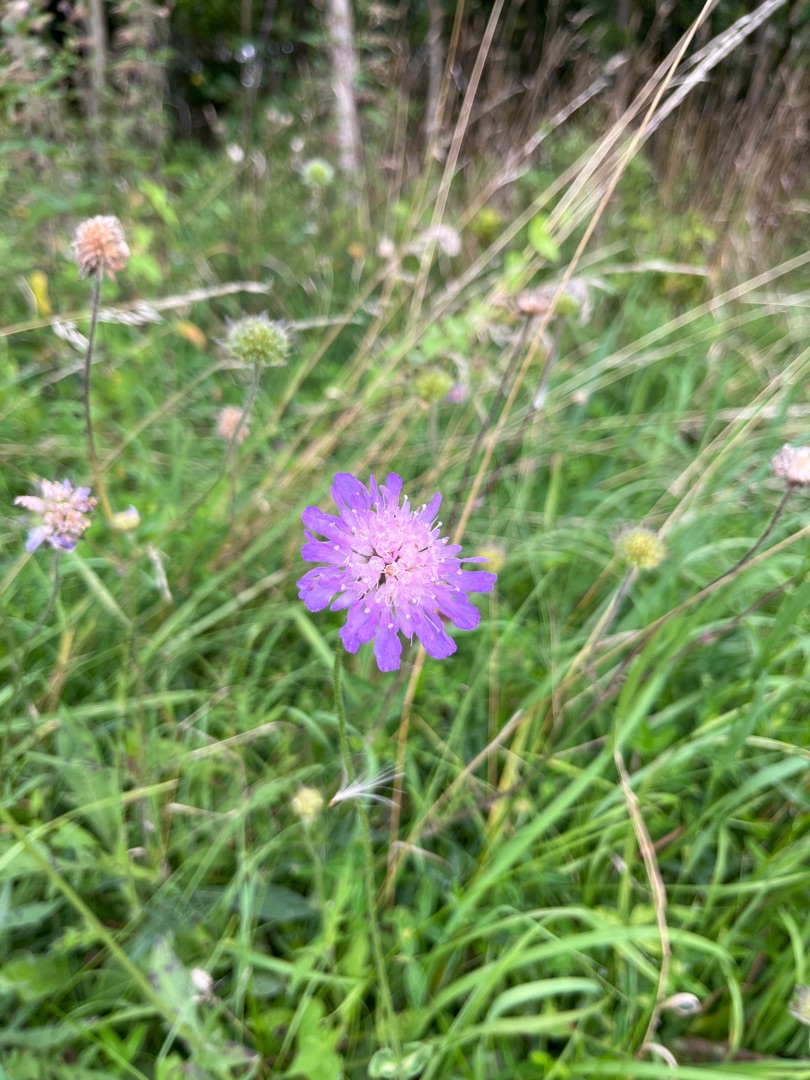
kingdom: Plantae
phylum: Tracheophyta
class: Magnoliopsida
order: Dipsacales
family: Caprifoliaceae
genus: Knautia
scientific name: Knautia arvensis
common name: Blåhat
